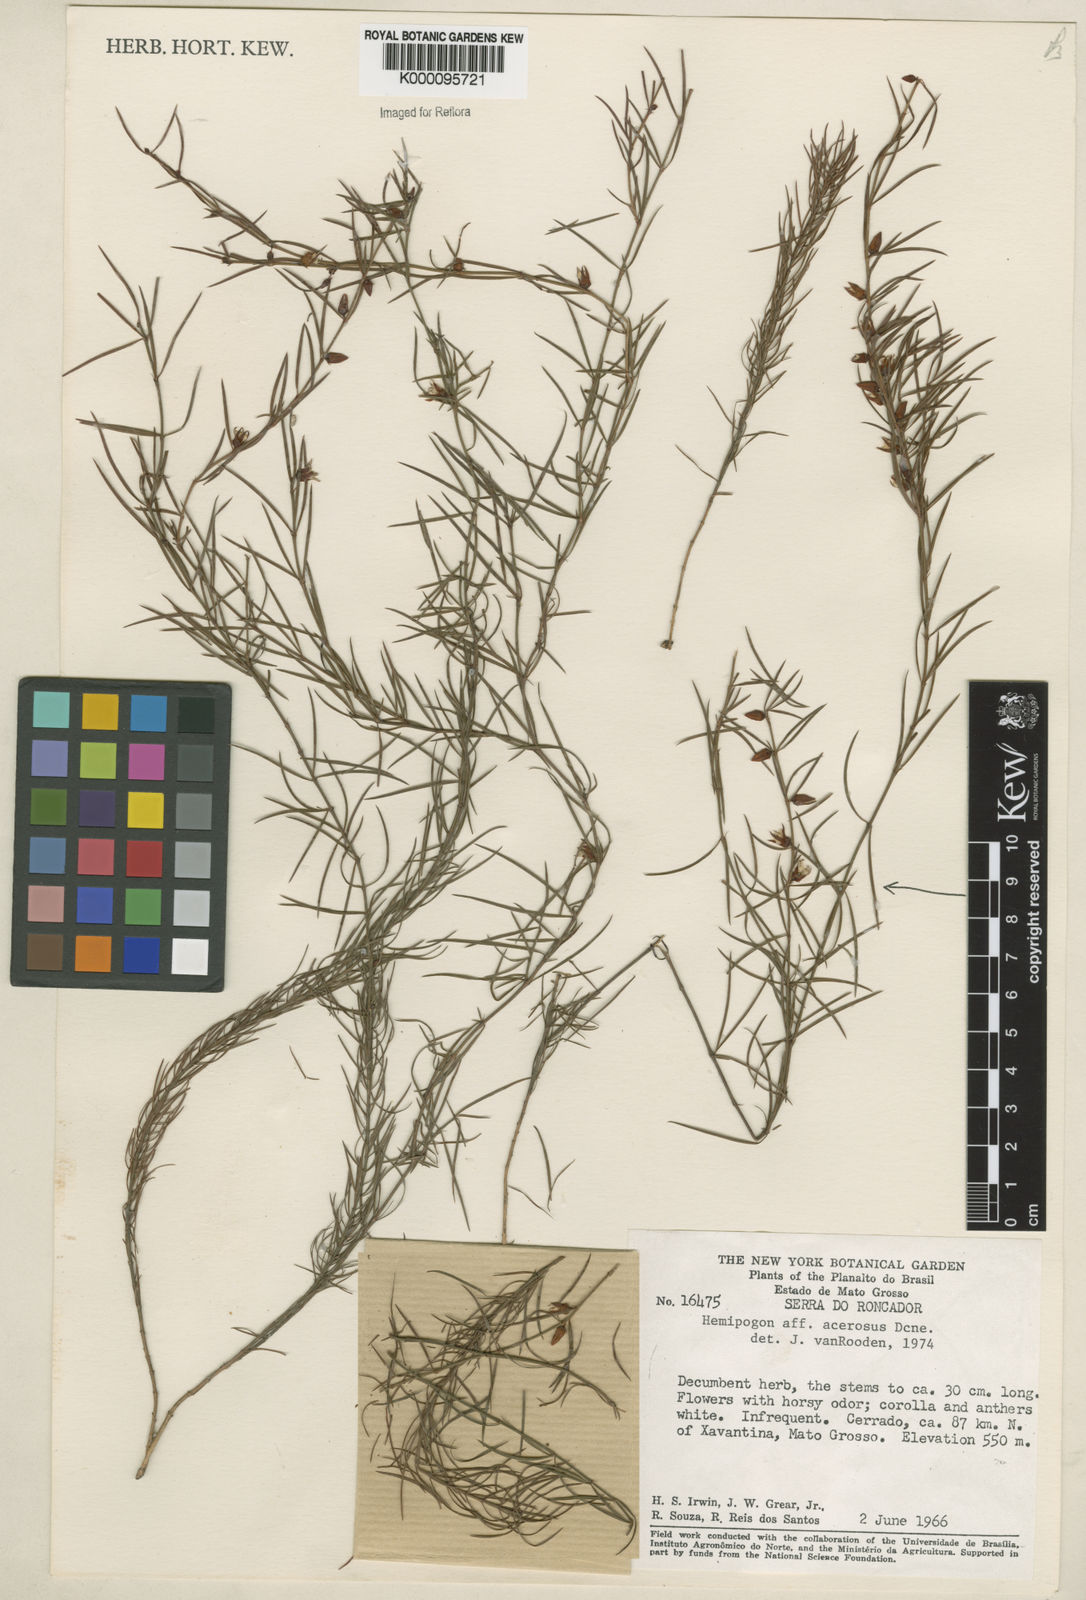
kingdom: Plantae
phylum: Tracheophyta
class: Magnoliopsida
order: Gentianales
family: Apocynaceae
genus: Hemipogon
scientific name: Hemipogon acerosus
